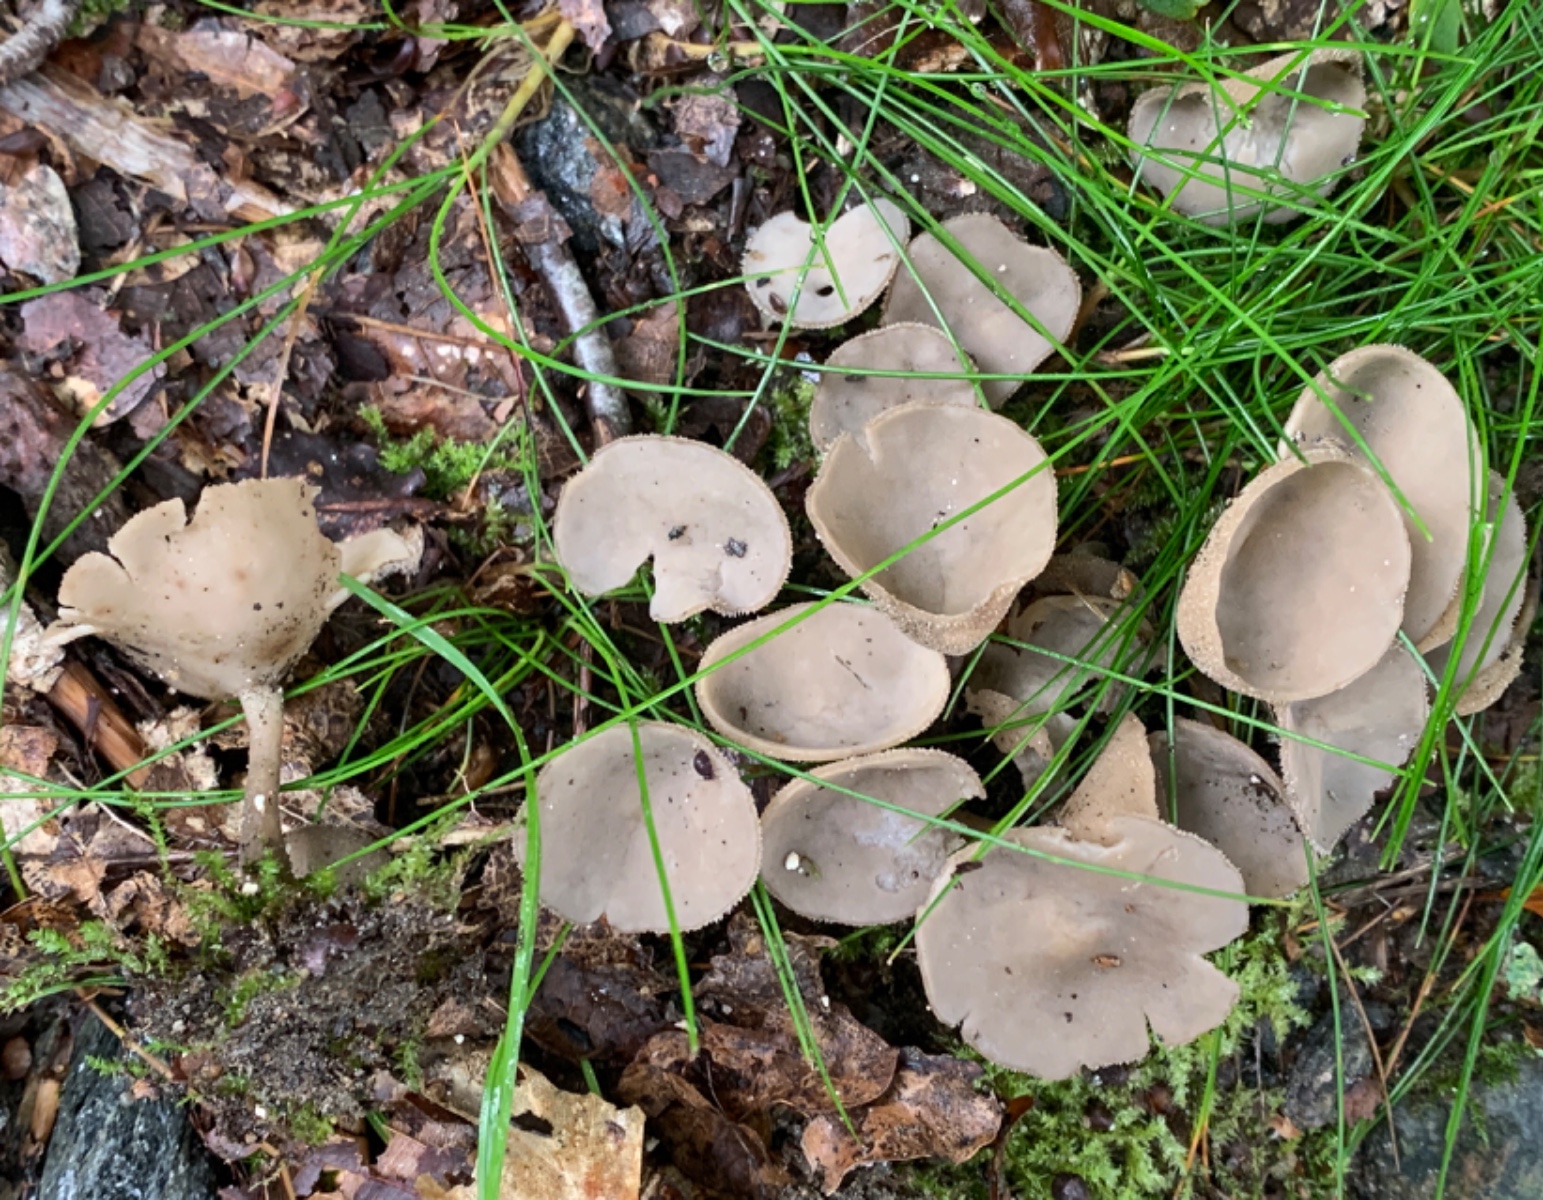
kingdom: Fungi
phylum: Ascomycota
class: Pezizomycetes
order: Pezizales
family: Helvellaceae
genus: Helvella
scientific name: Helvella
